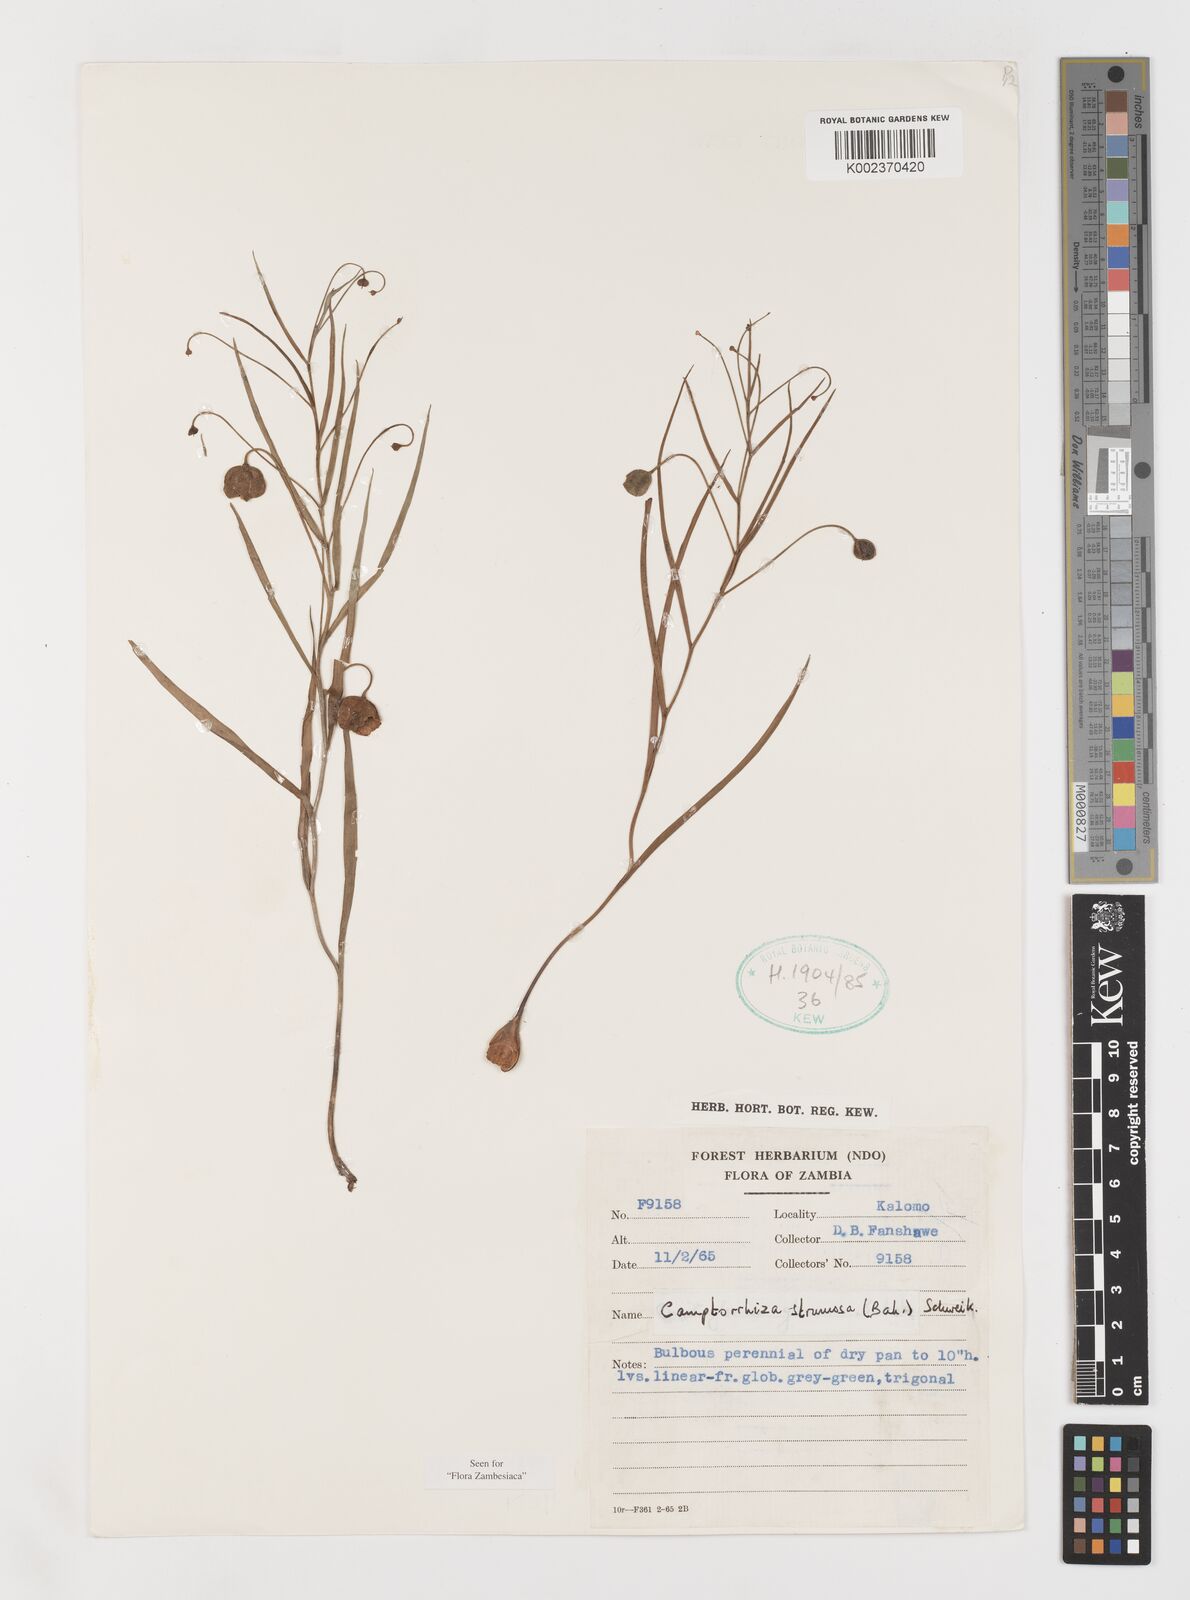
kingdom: Plantae
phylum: Tracheophyta
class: Liliopsida
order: Liliales
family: Colchicaceae
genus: Camptorrhiza
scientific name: Camptorrhiza strumosa
